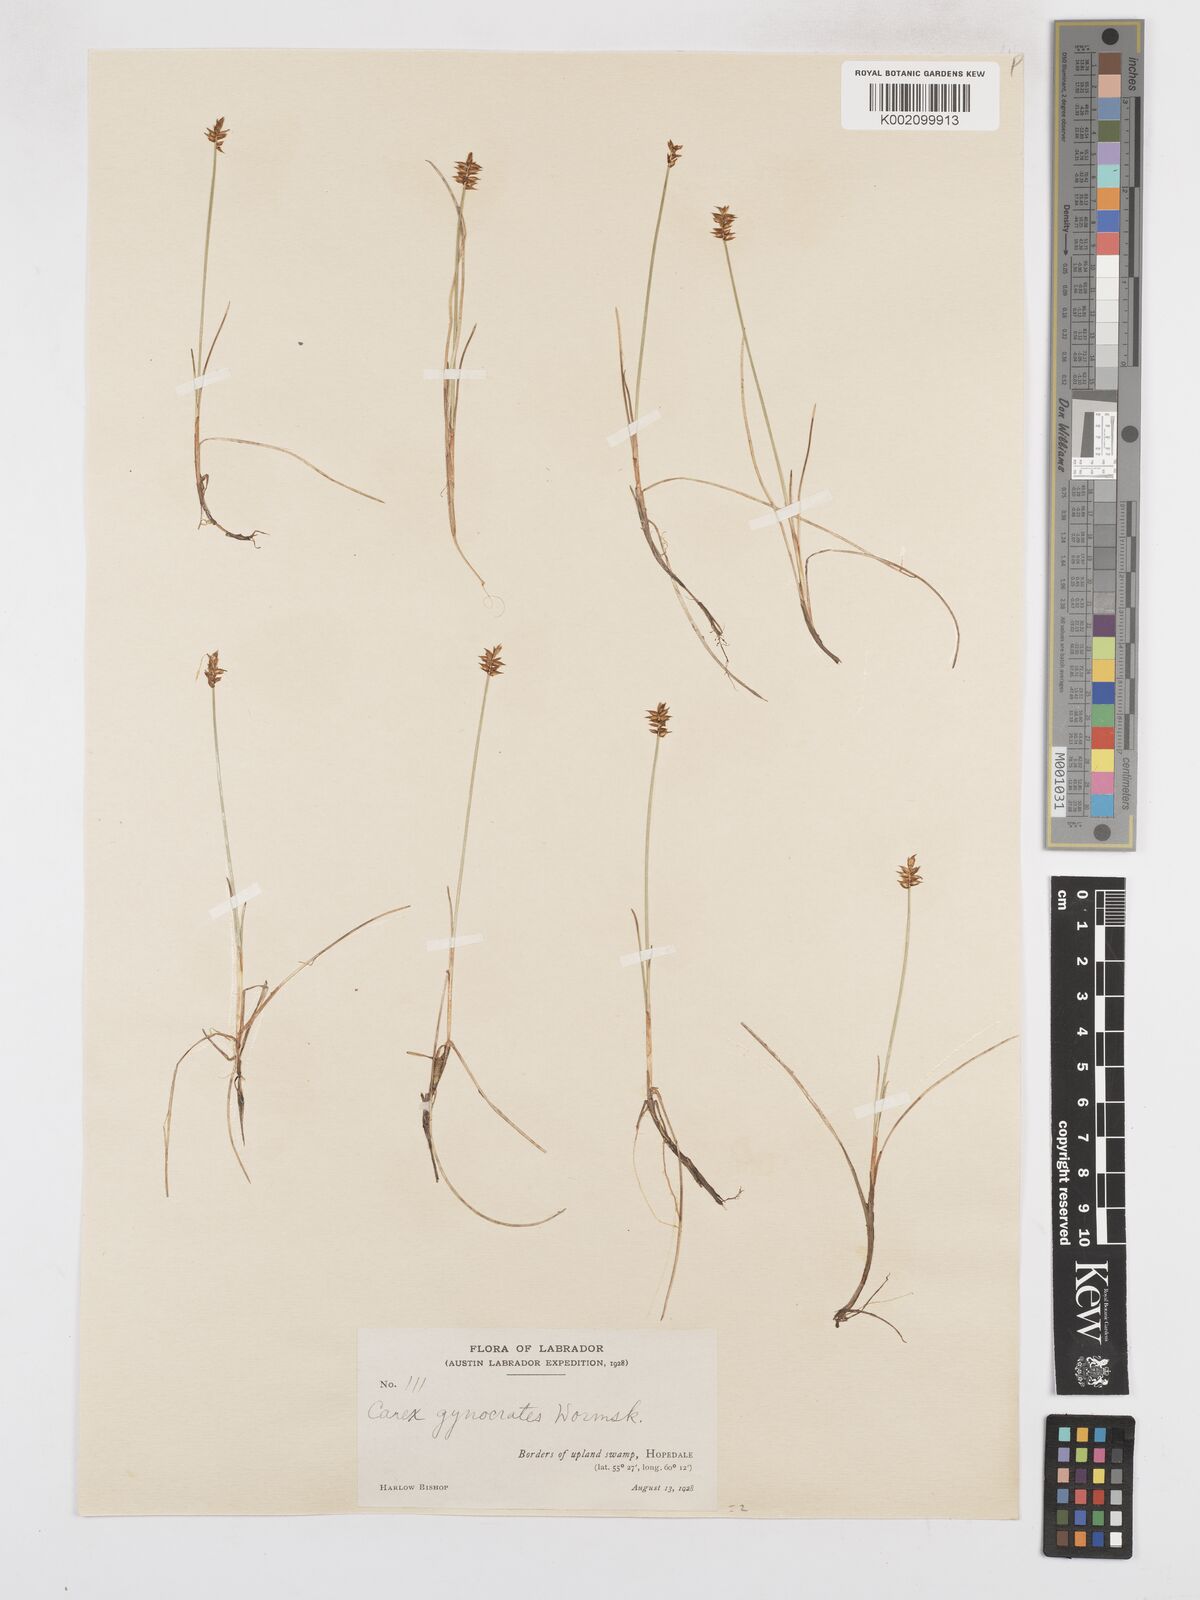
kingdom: Plantae
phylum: Tracheophyta
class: Liliopsida
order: Poales
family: Cyperaceae
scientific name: Cyperaceae
